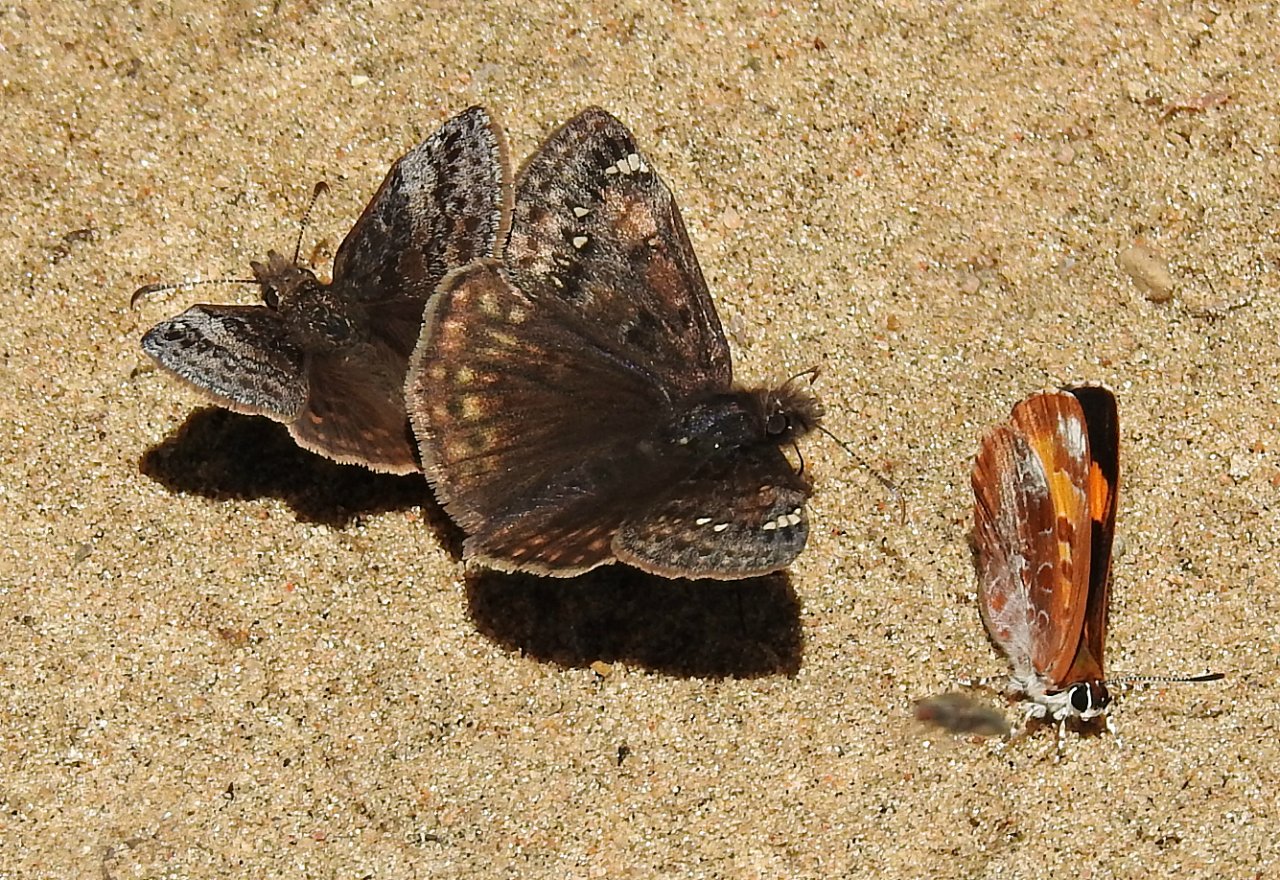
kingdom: Animalia
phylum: Arthropoda
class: Insecta
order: Lepidoptera
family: Hesperiidae
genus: Gesta
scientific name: Gesta
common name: Juvenal's Duskywing
